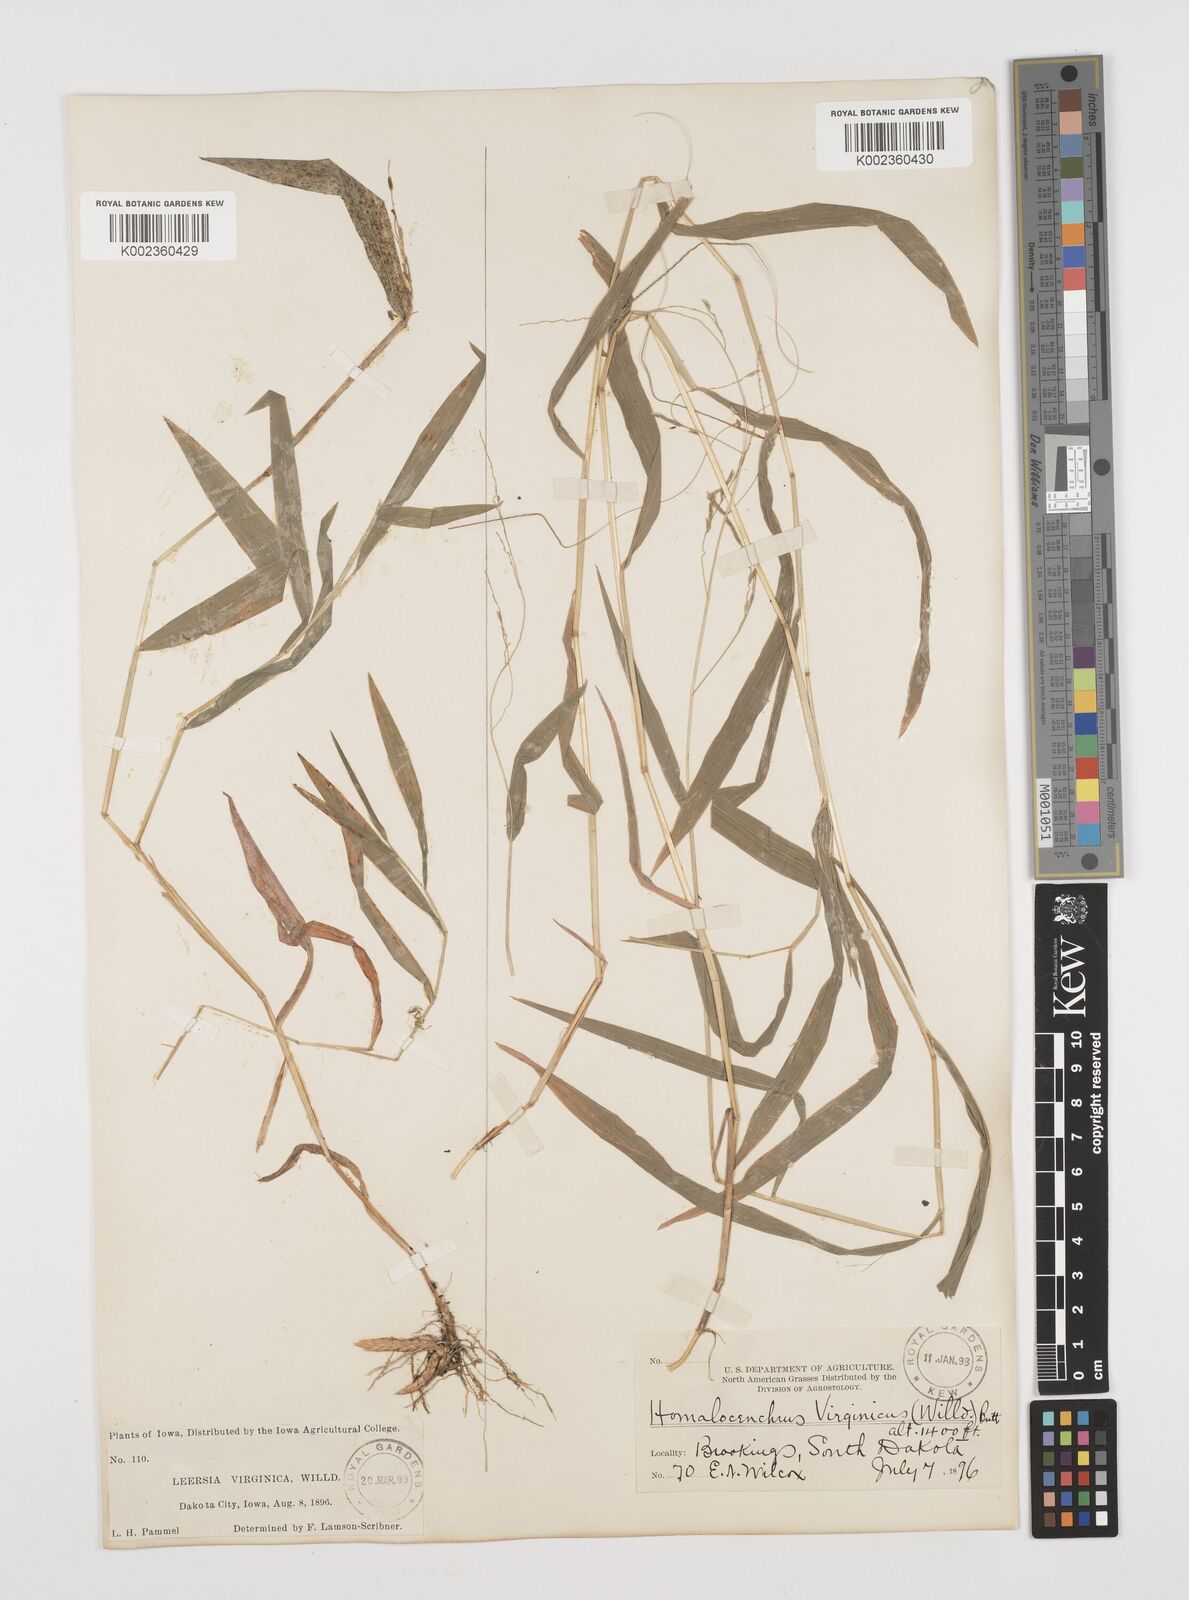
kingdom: Plantae
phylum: Tracheophyta
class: Liliopsida
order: Poales
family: Poaceae
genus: Leersia
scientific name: Leersia virginica
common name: White cutgrass
